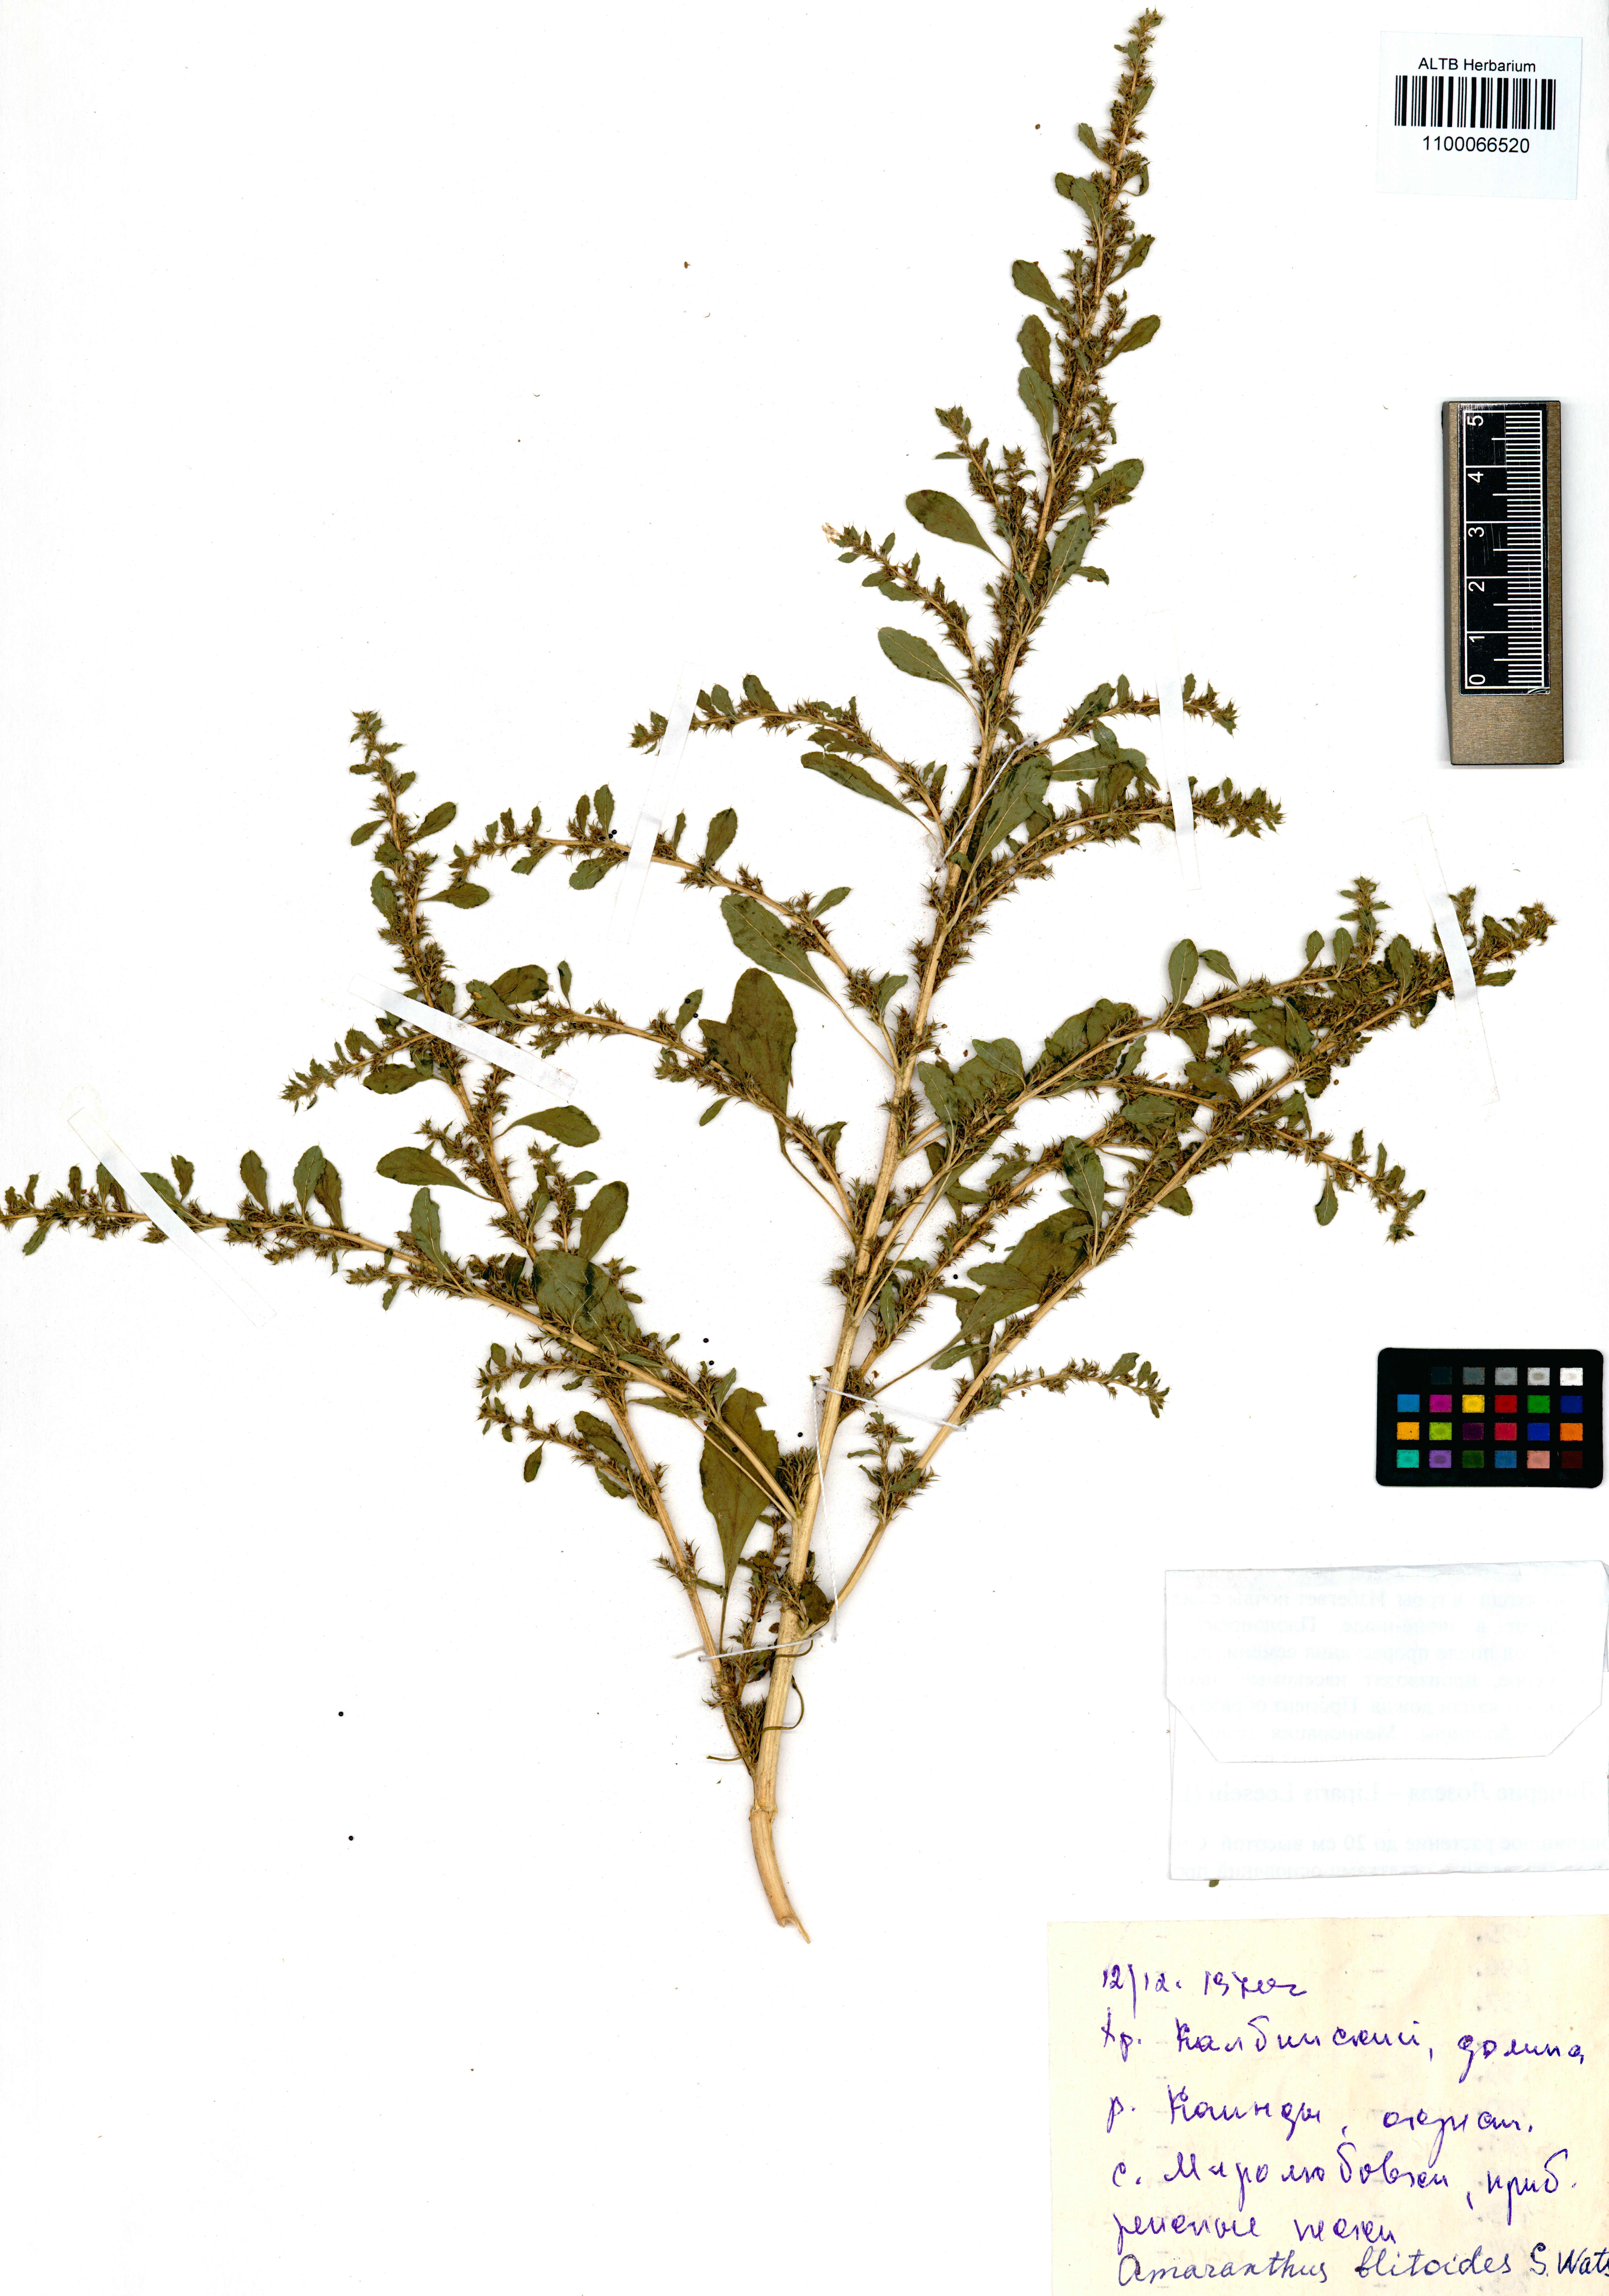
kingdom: Plantae
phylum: Tracheophyta
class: Magnoliopsida
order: Caryophyllales
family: Amaranthaceae
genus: Amaranthus
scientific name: Amaranthus blitoides
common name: Prostrate pigweed
